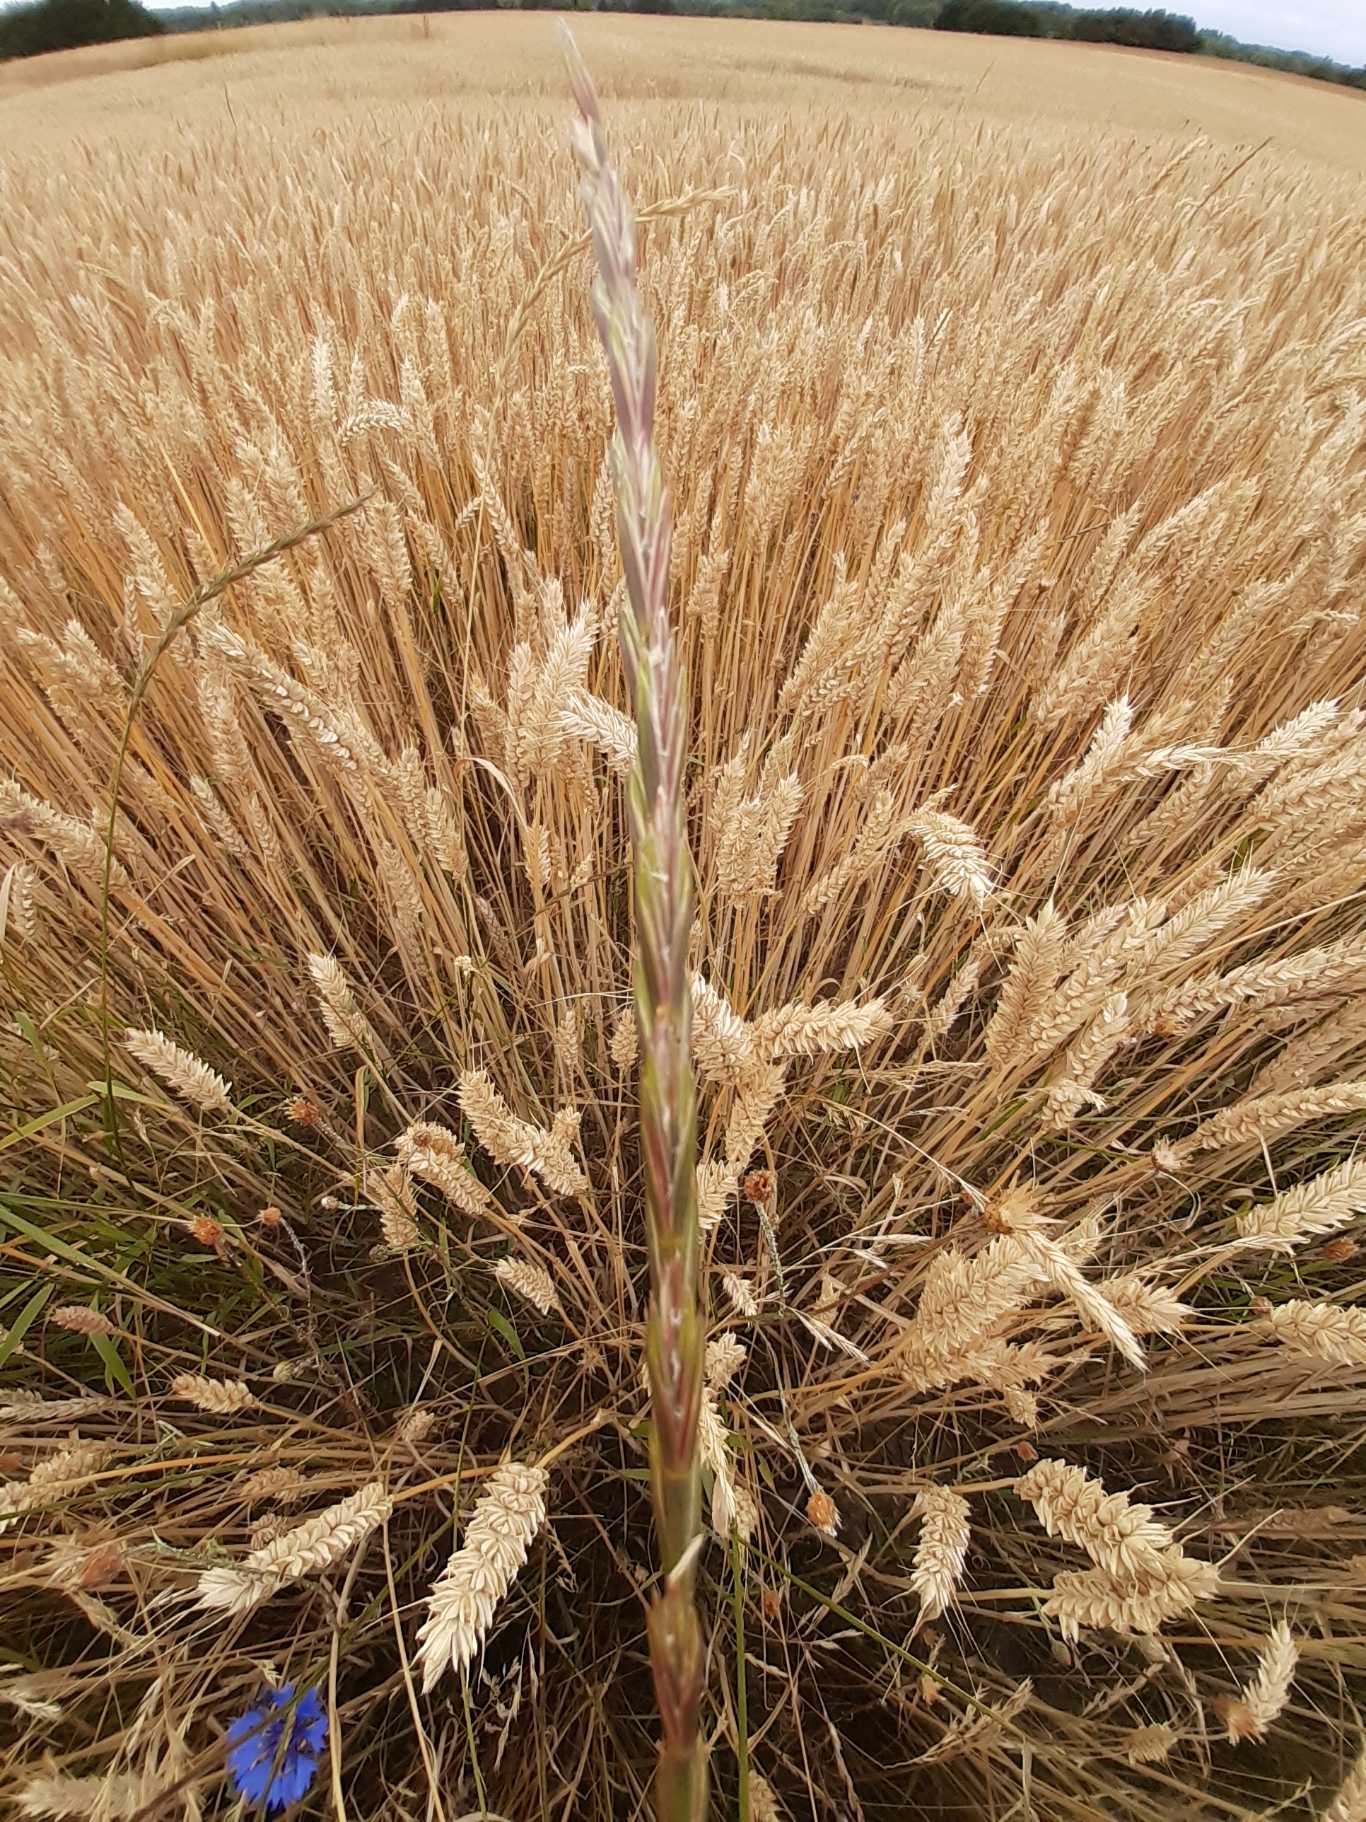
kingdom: Plantae
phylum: Tracheophyta
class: Liliopsida
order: Poales
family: Poaceae
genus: Elymus
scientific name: Elymus repens
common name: Almindelig kvik
